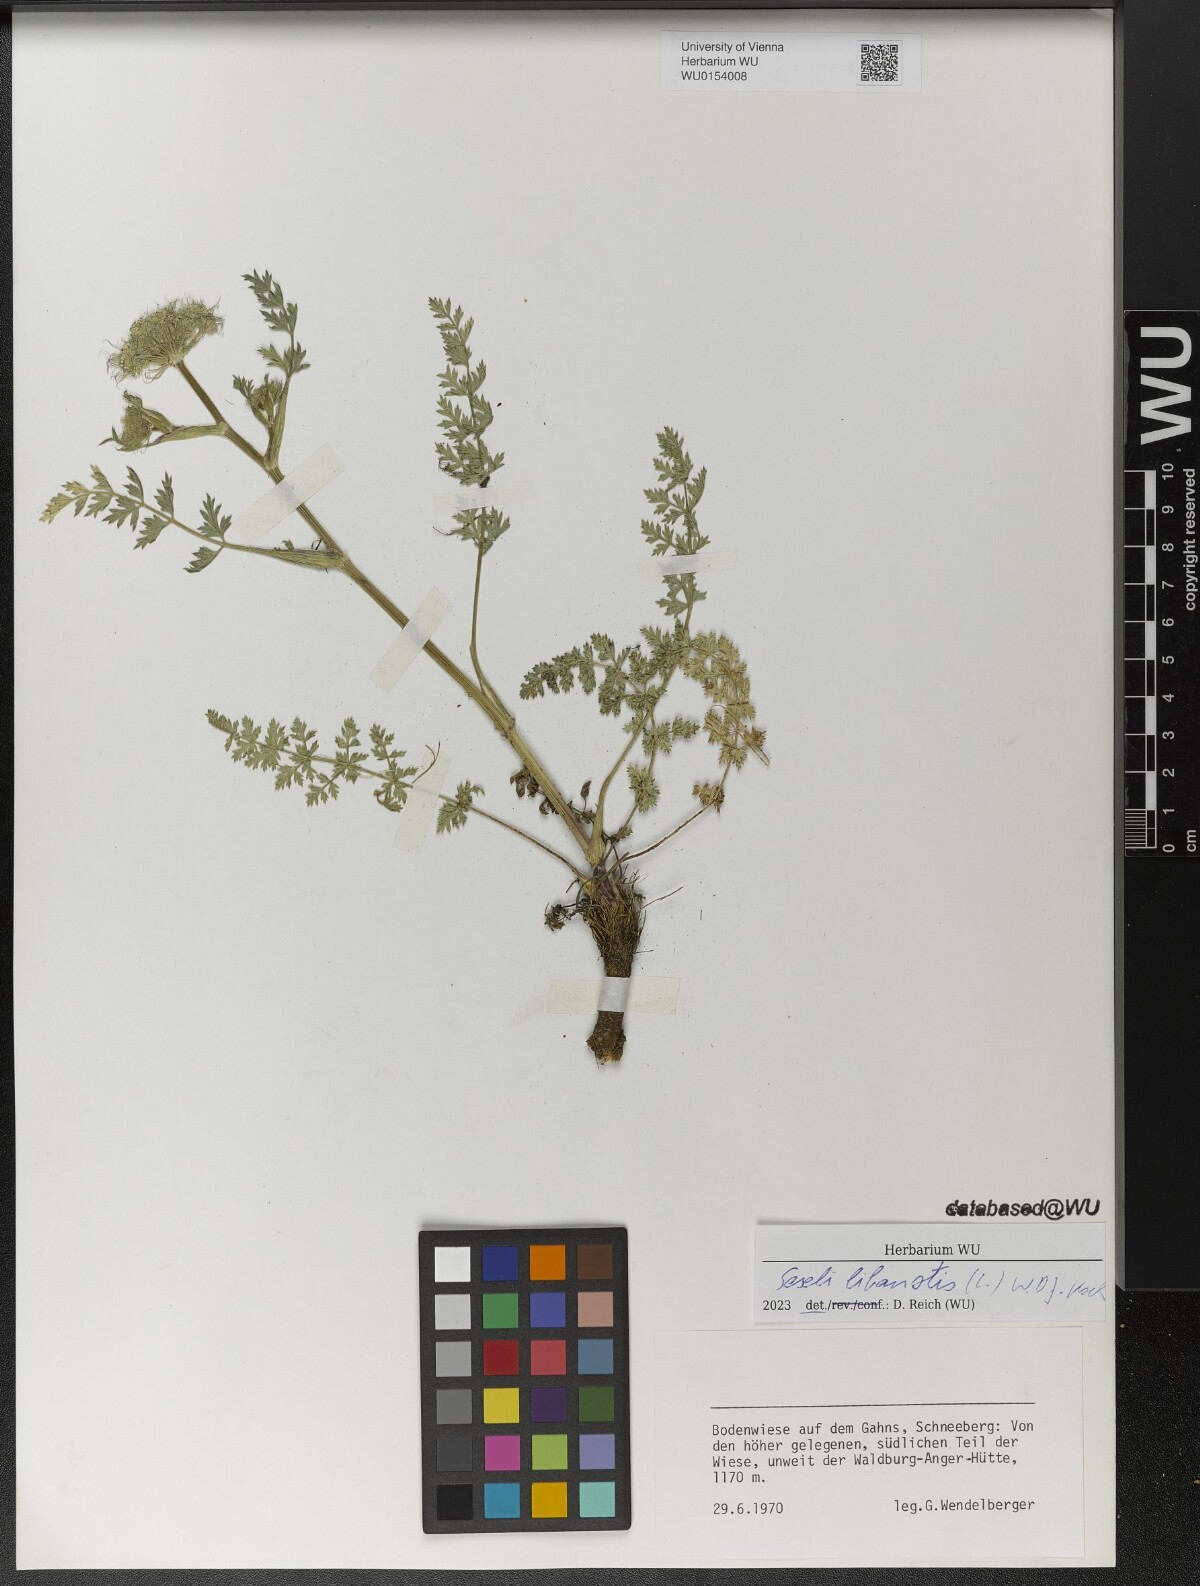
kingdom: Plantae
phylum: Tracheophyta
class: Magnoliopsida
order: Apiales
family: Apiaceae
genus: Seseli
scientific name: Seseli libanotis
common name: Mooncarrot
